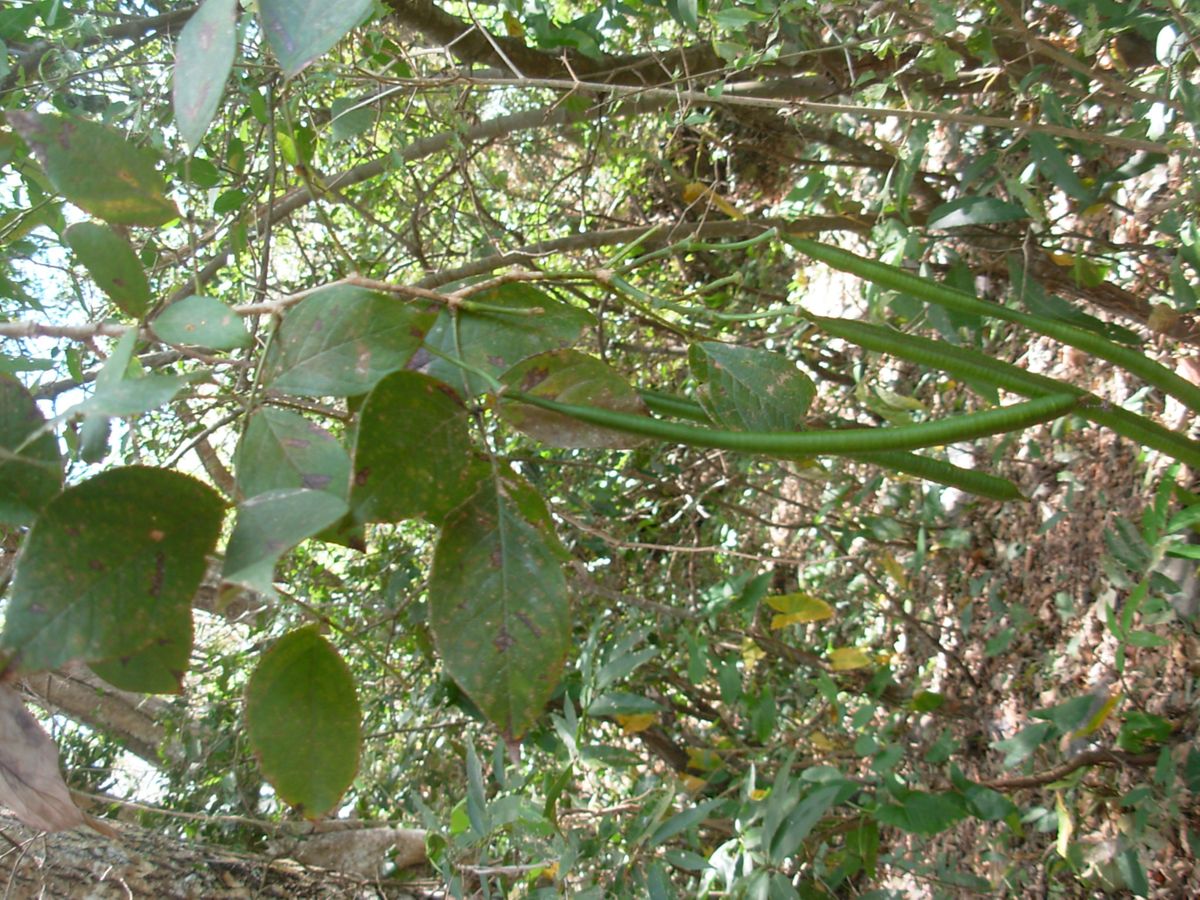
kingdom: Plantae
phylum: Tracheophyta
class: Magnoliopsida
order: Fabales
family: Fabaceae
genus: Senna
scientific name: Senna hayesiana
